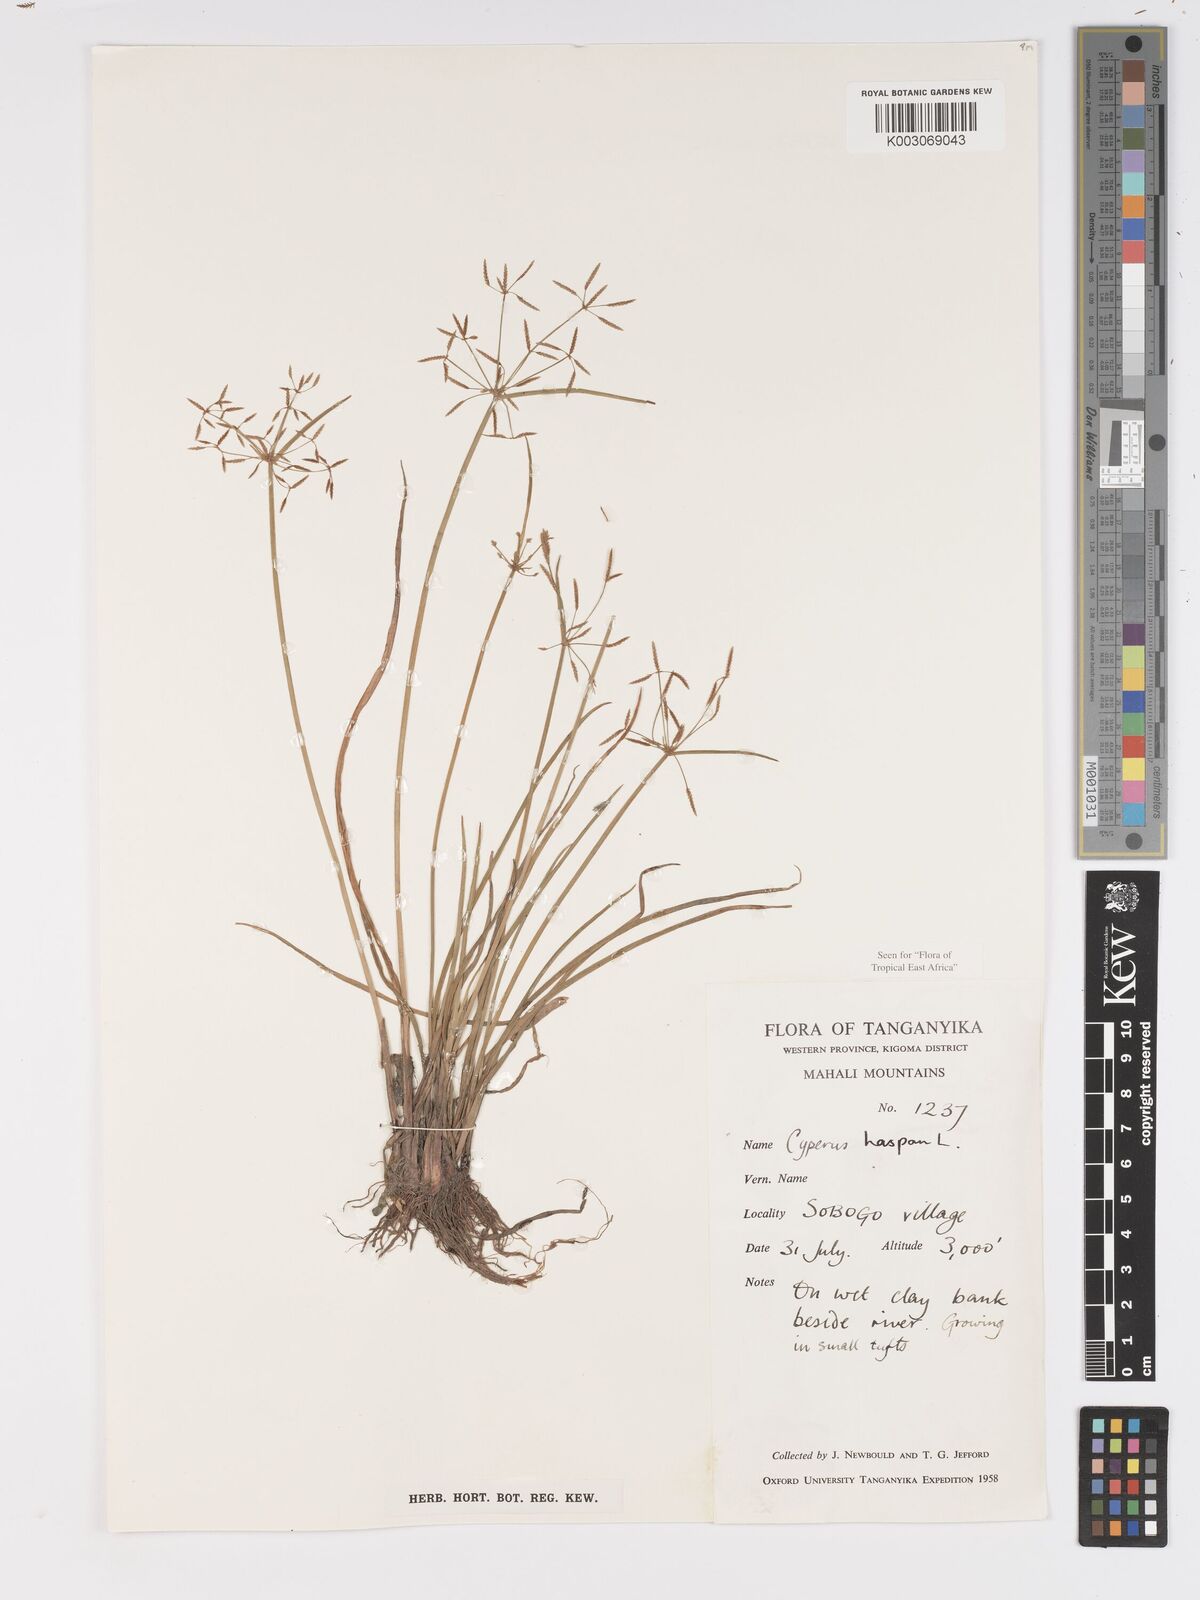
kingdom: Plantae
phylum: Tracheophyta
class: Liliopsida
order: Poales
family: Cyperaceae
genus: Cyperus
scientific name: Cyperus haspan
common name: Haspan flatsedge
